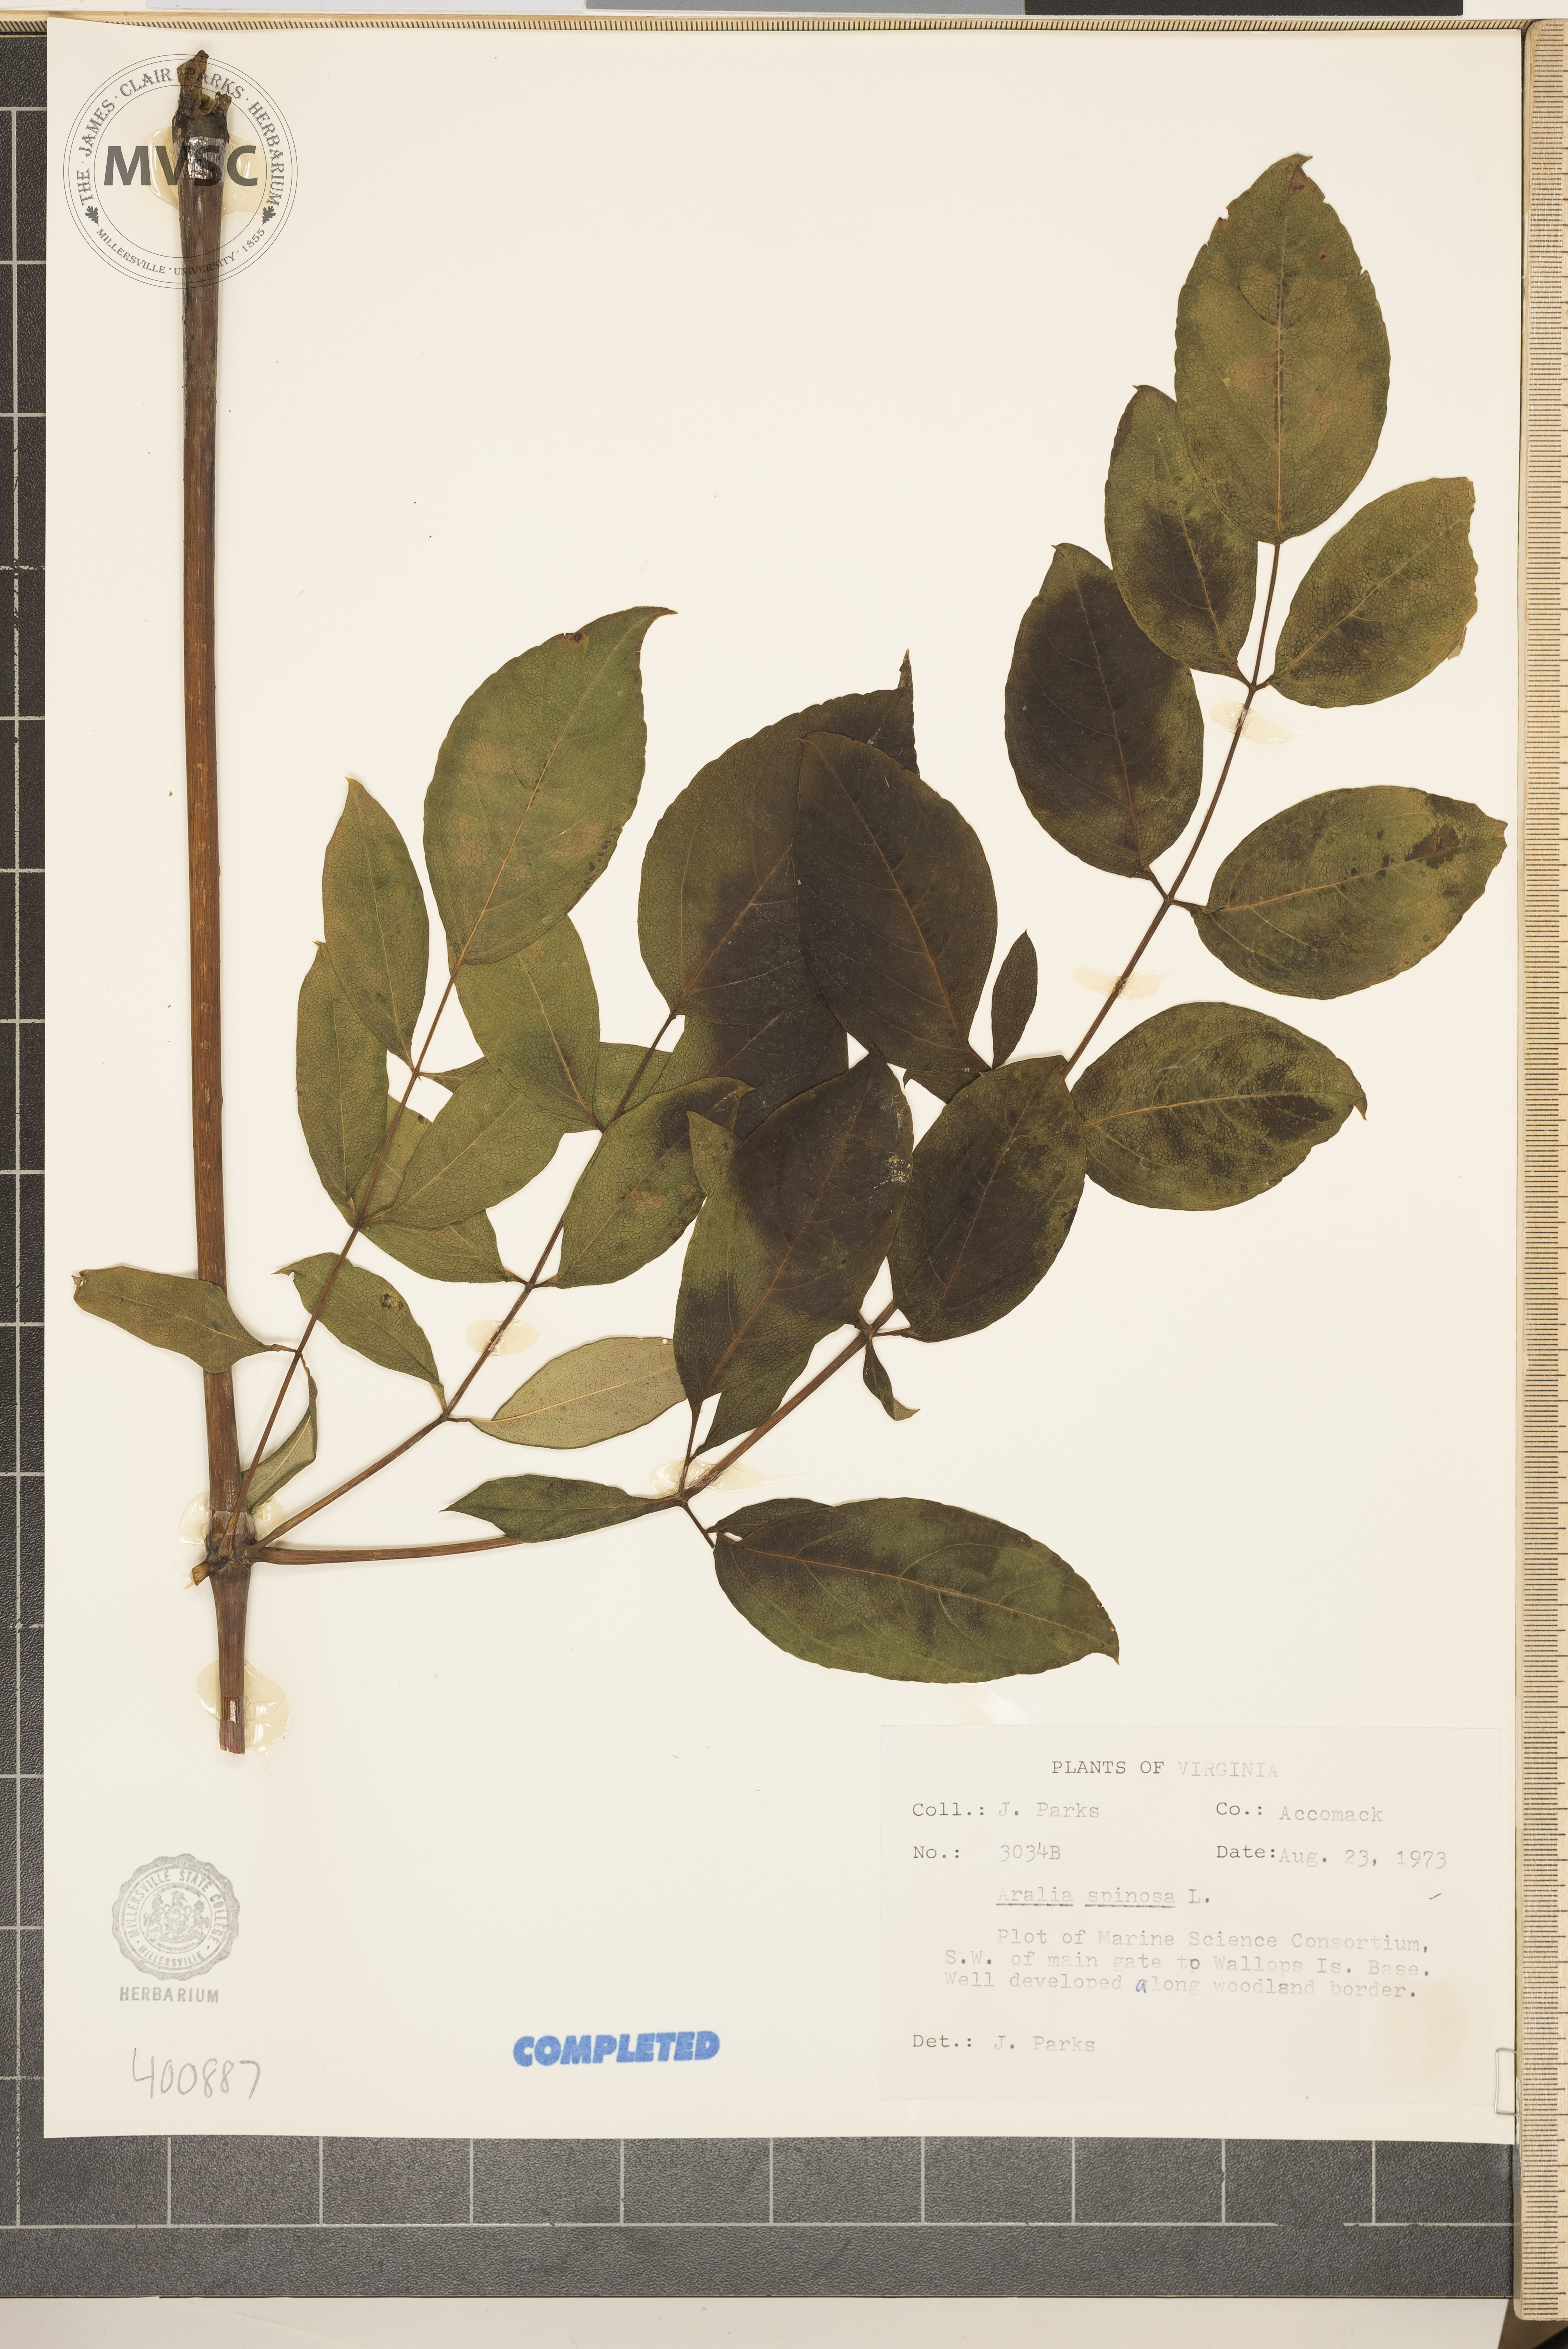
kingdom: Plantae
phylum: Tracheophyta
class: Magnoliopsida
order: Apiales
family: Araliaceae
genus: Aralia
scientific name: Aralia spinosa
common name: Devil's club
